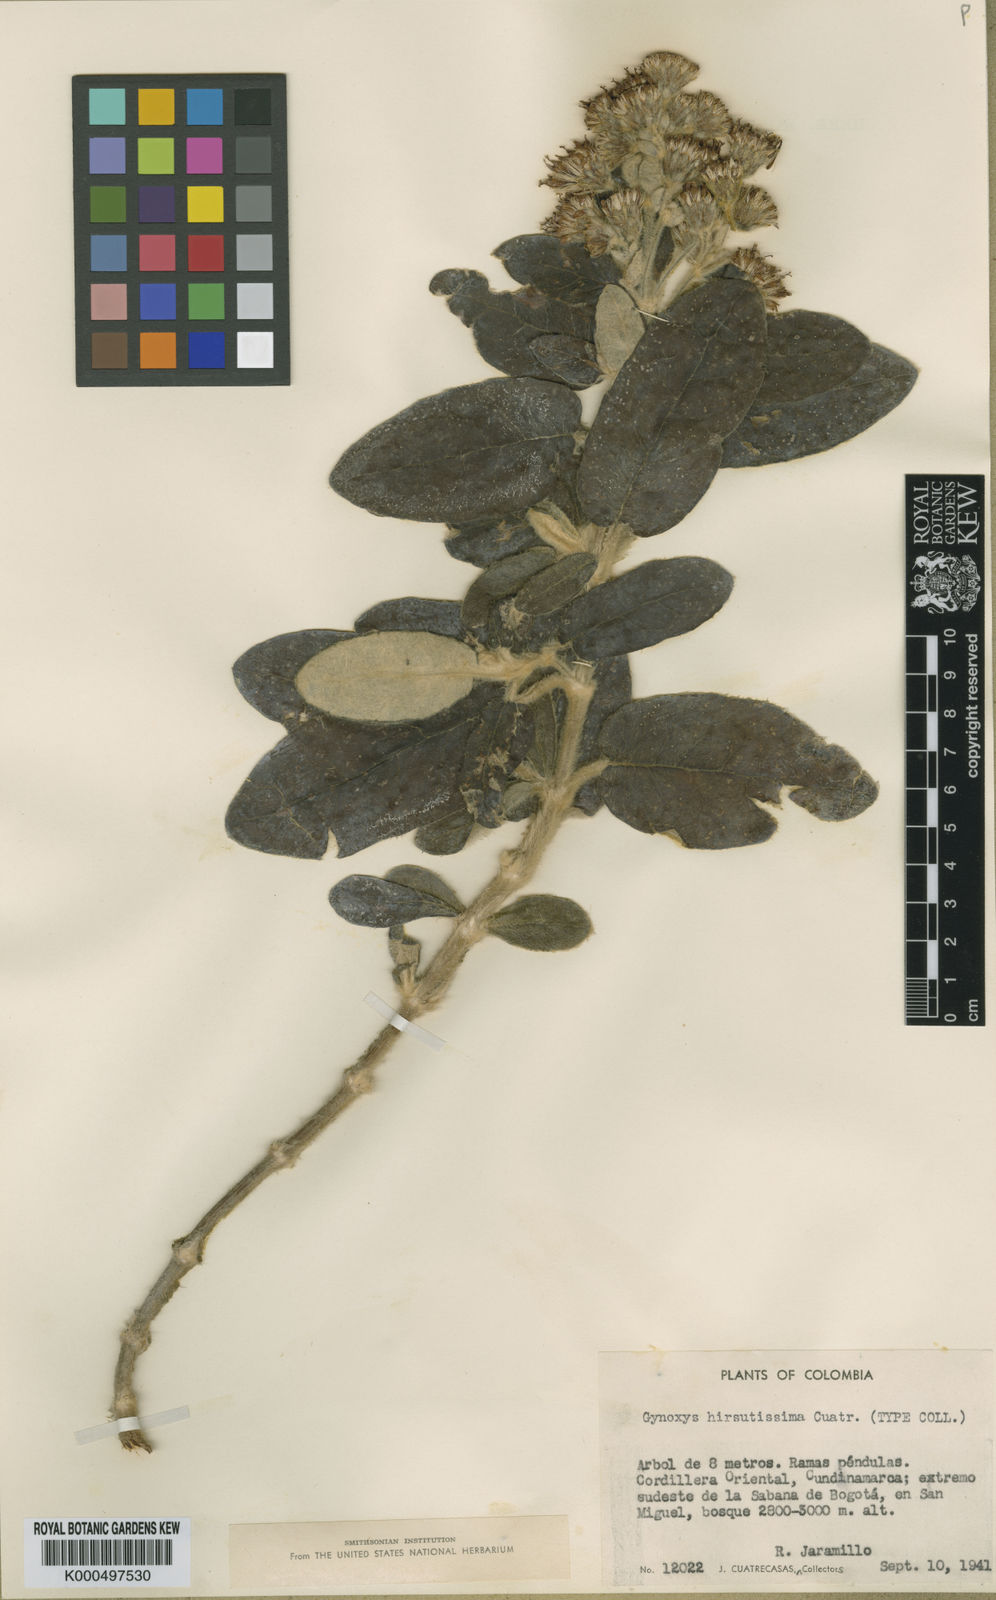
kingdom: Plantae
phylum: Tracheophyta
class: Magnoliopsida
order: Asterales
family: Asteraceae
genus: Gynoxys
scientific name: Gynoxys hirsutissima
